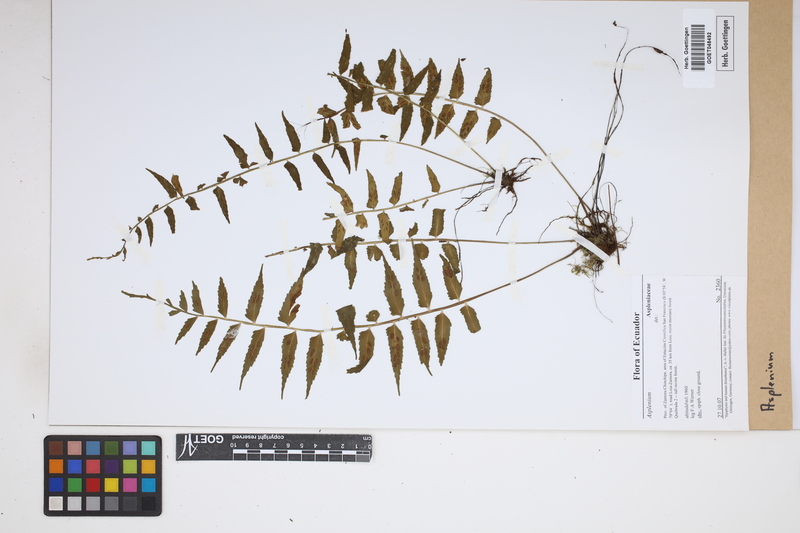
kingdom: Plantae
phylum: Tracheophyta
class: Polypodiopsida
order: Polypodiales
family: Aspleniaceae
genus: Asplenium
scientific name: Asplenium
